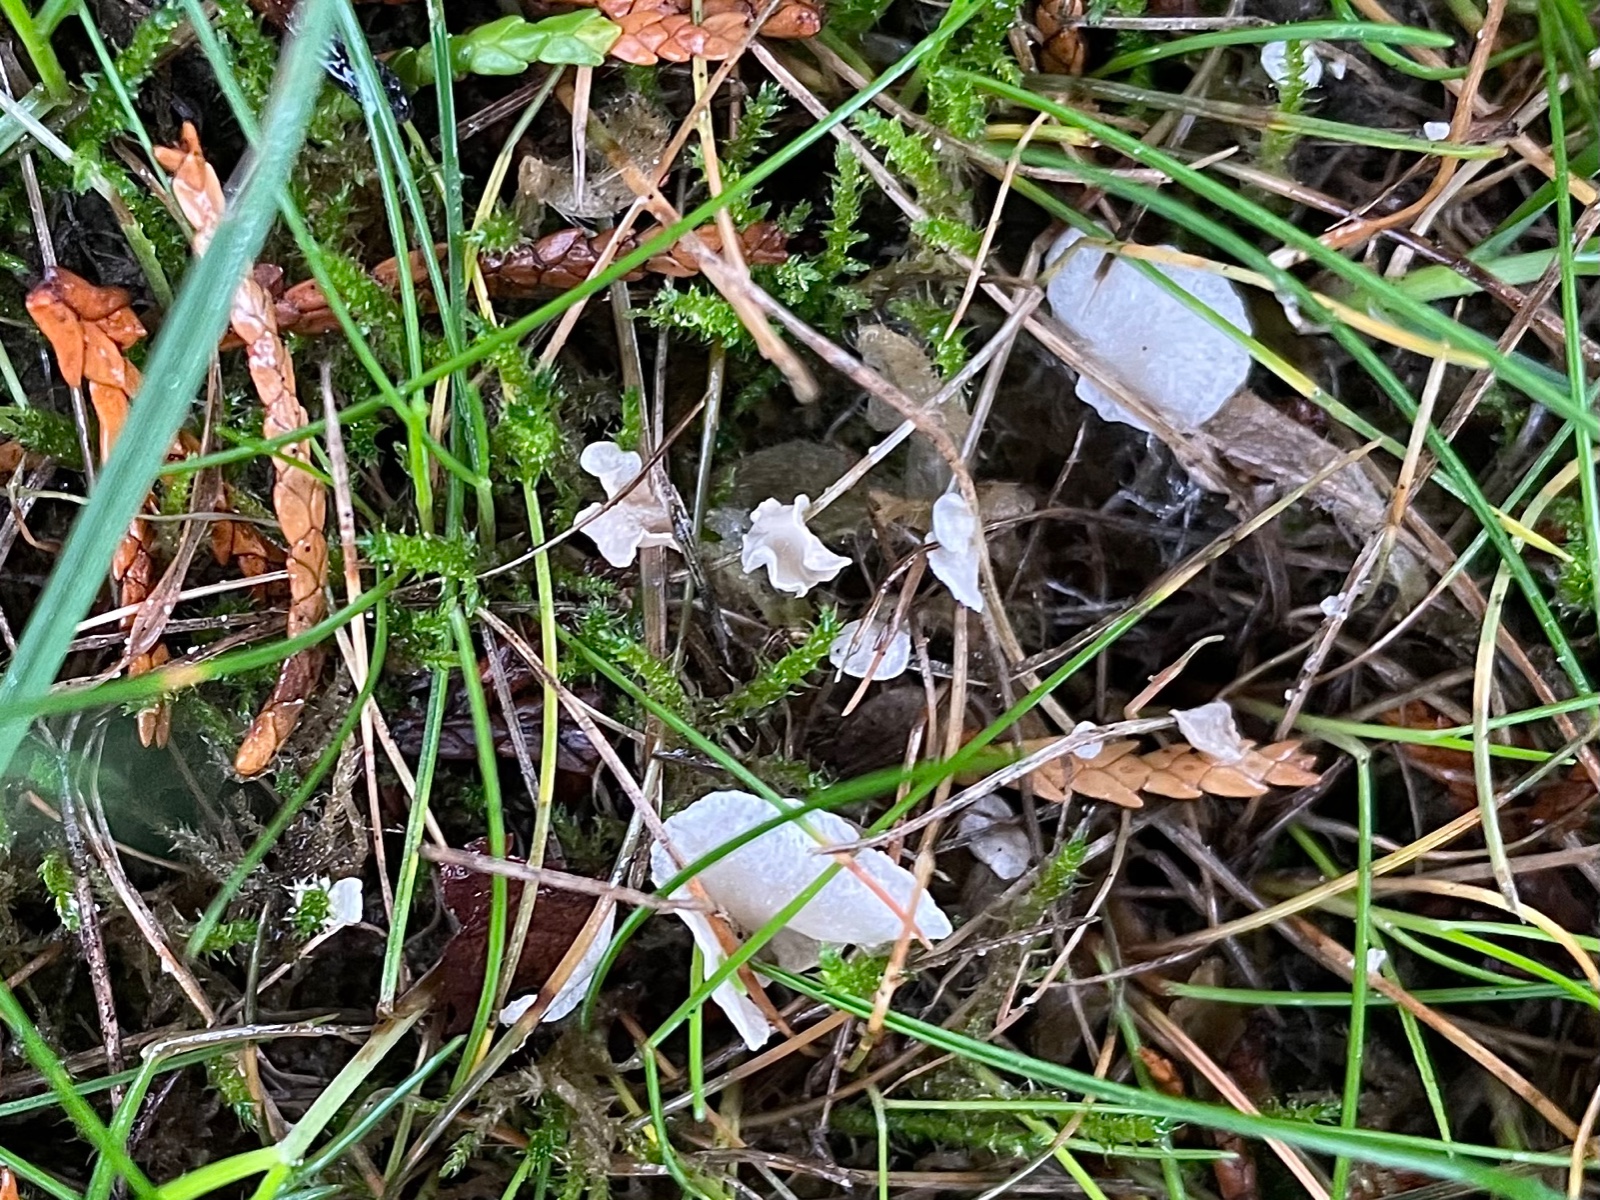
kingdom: Fungi
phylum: Basidiomycota
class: Agaricomycetes
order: Agaricales
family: Hygrophoraceae
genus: Arrhenia
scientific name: Arrhenia retiruga
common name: lille fontænehat
